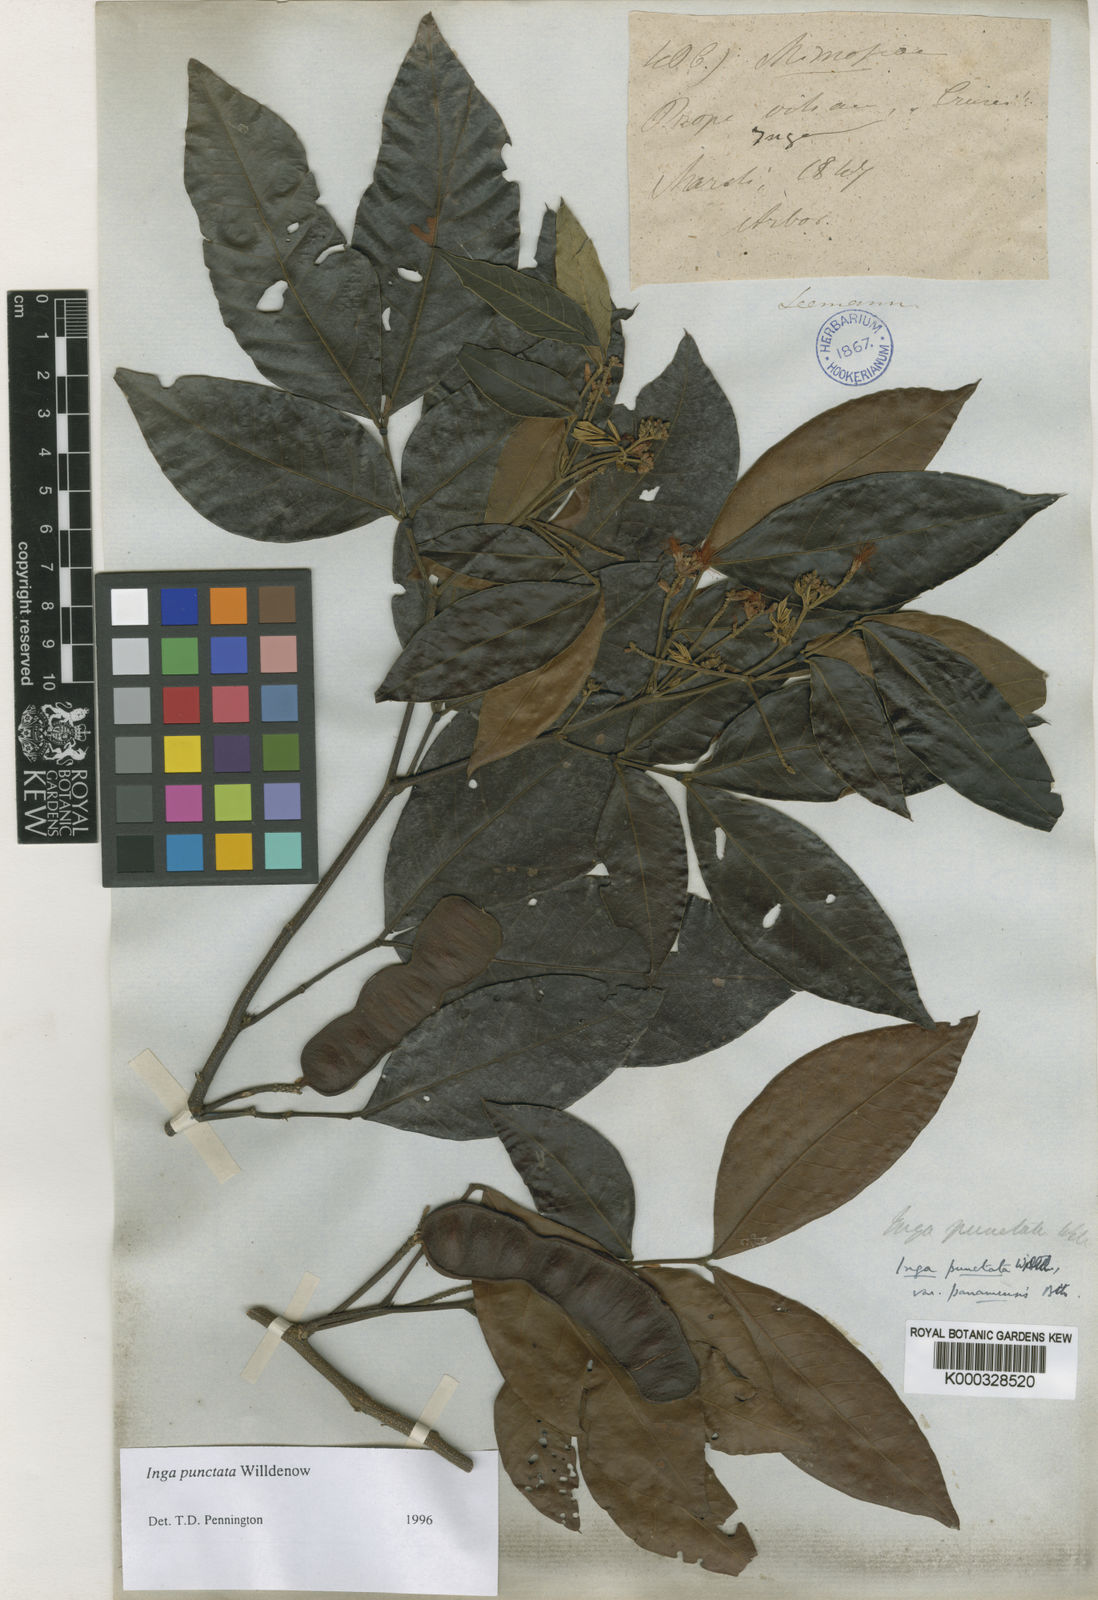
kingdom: Plantae
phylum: Tracheophyta
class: Magnoliopsida
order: Fabales
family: Fabaceae
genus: Inga
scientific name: Inga punctata
